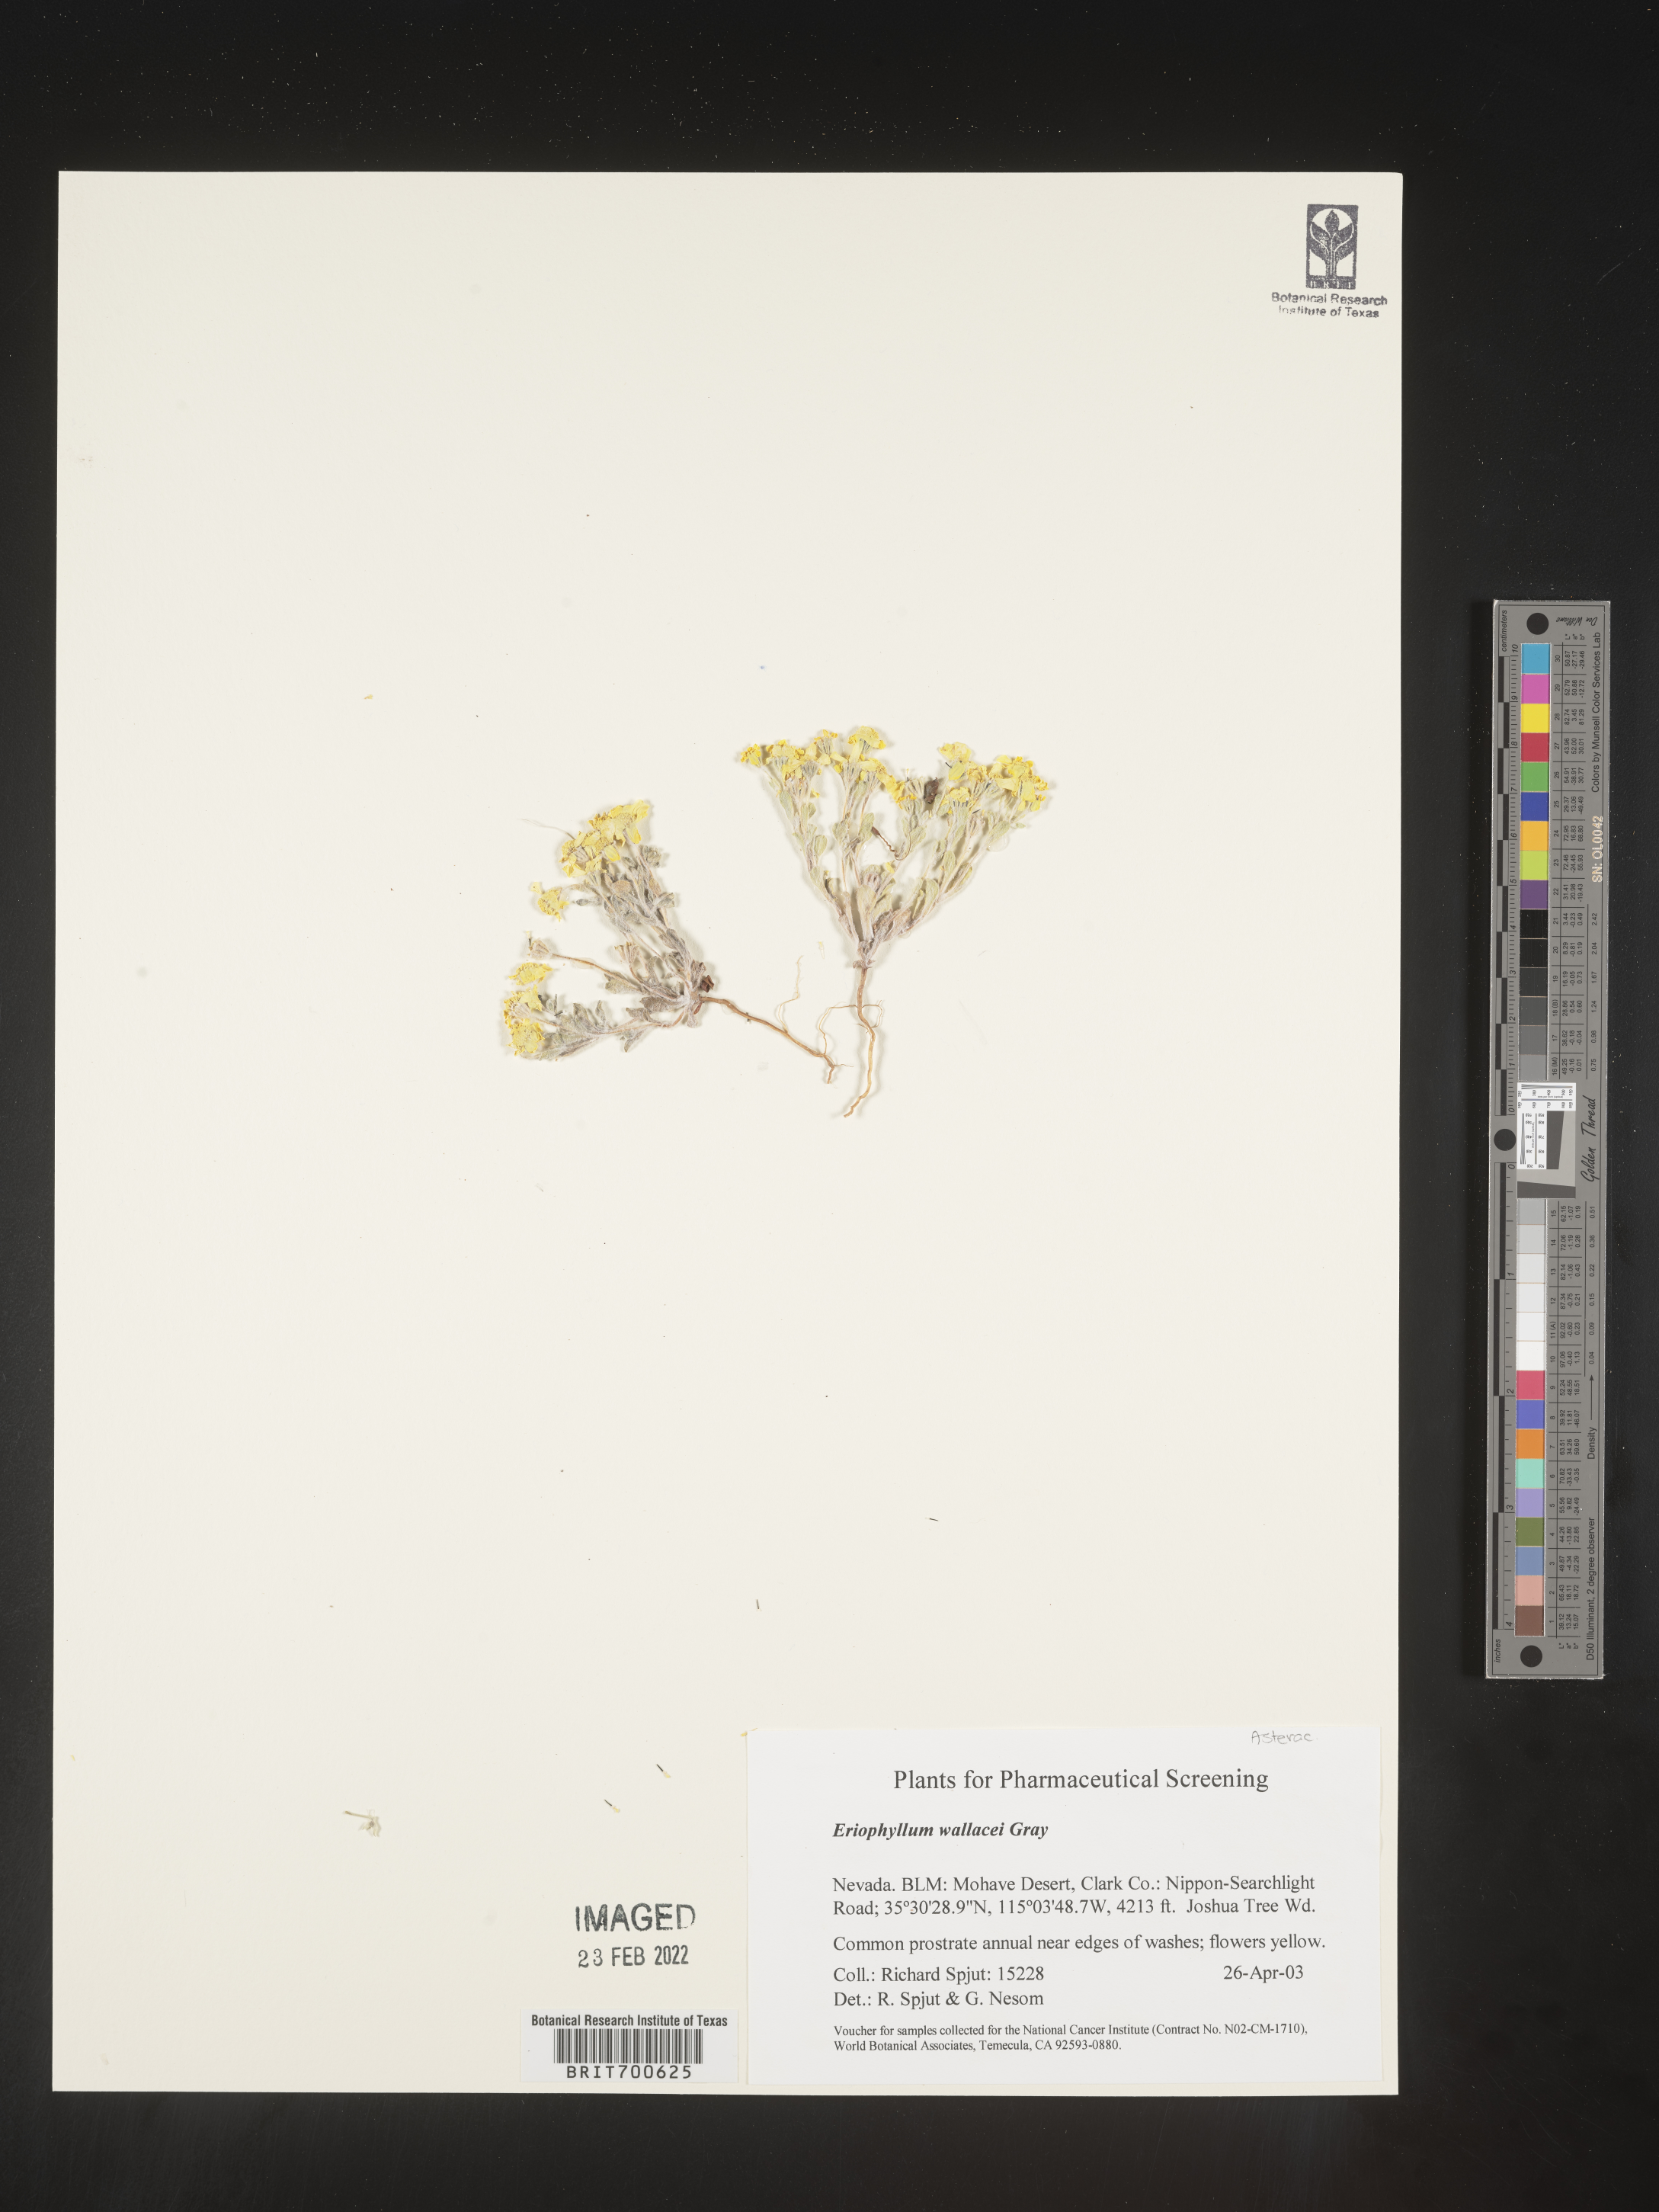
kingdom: Plantae
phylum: Tracheophyta
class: Magnoliopsida
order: Asterales
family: Asteraceae
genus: Eriophyllum
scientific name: Eriophyllum wallacei
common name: Wallace's woolly daisy
